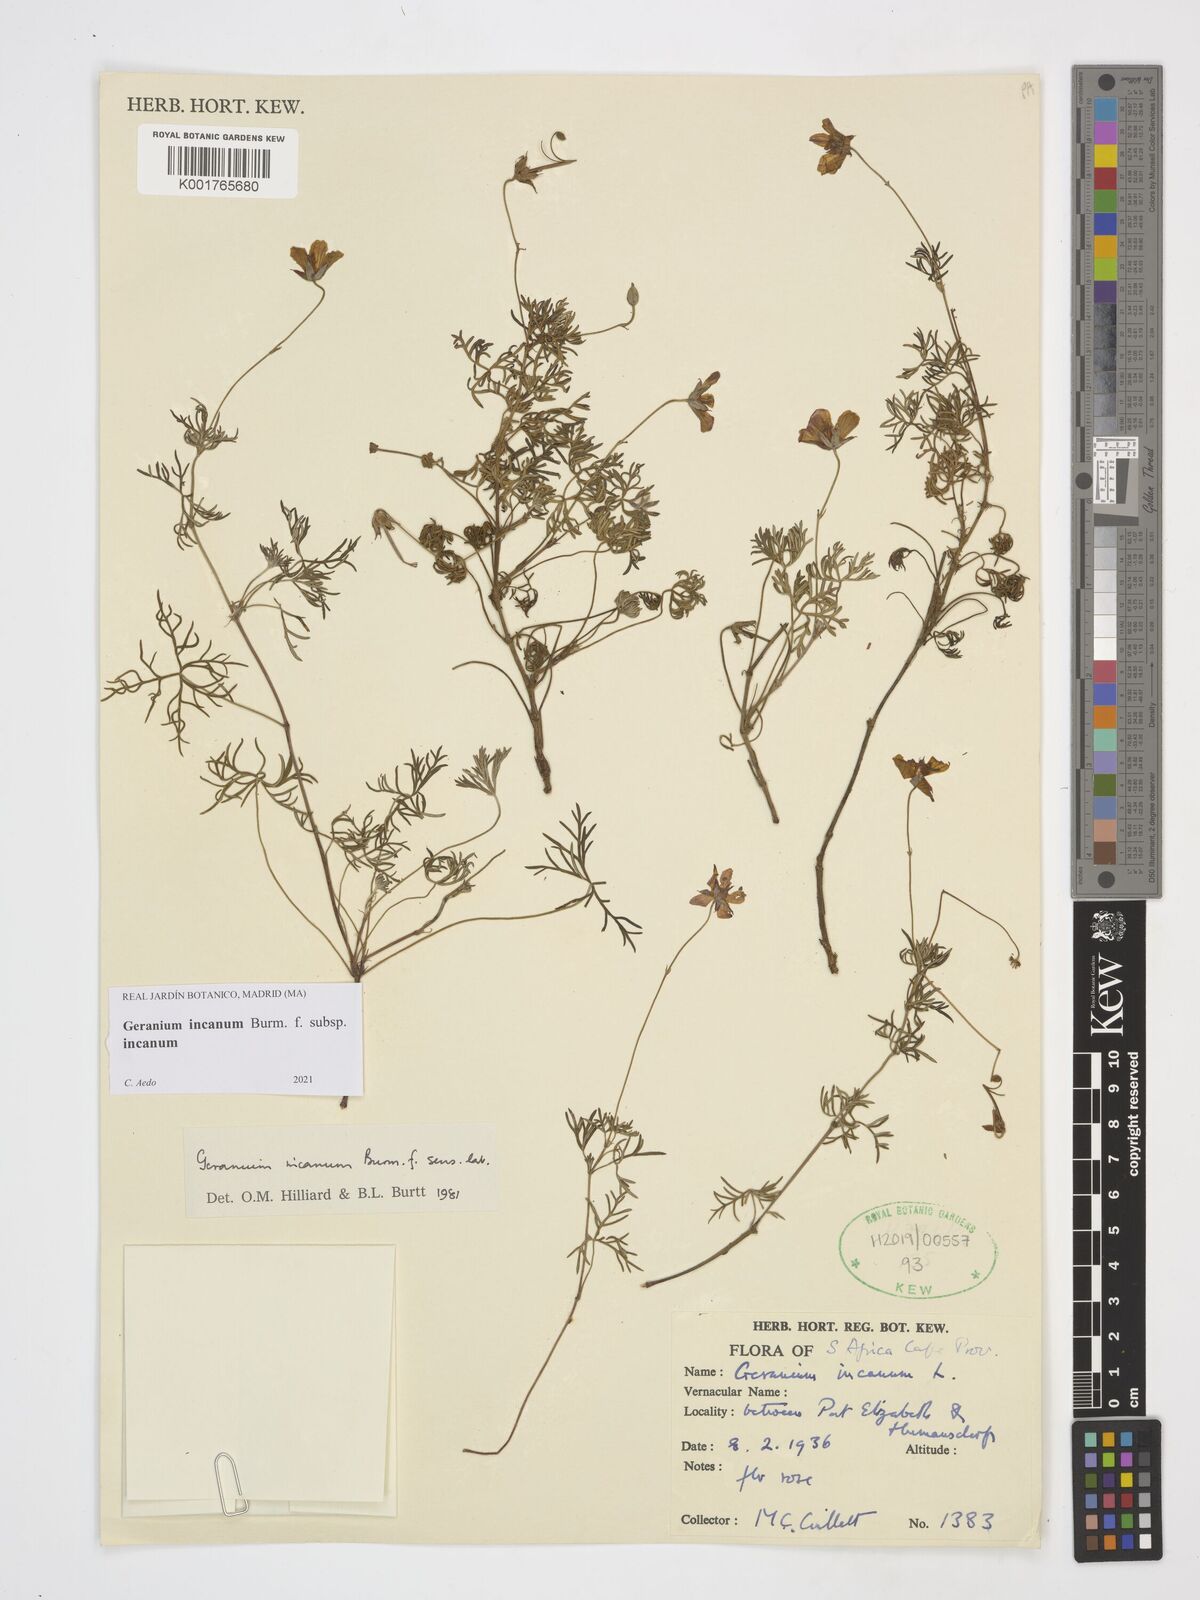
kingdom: Plantae
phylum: Tracheophyta
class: Magnoliopsida
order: Geraniales
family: Geraniaceae
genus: Geranium
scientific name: Geranium incanum
